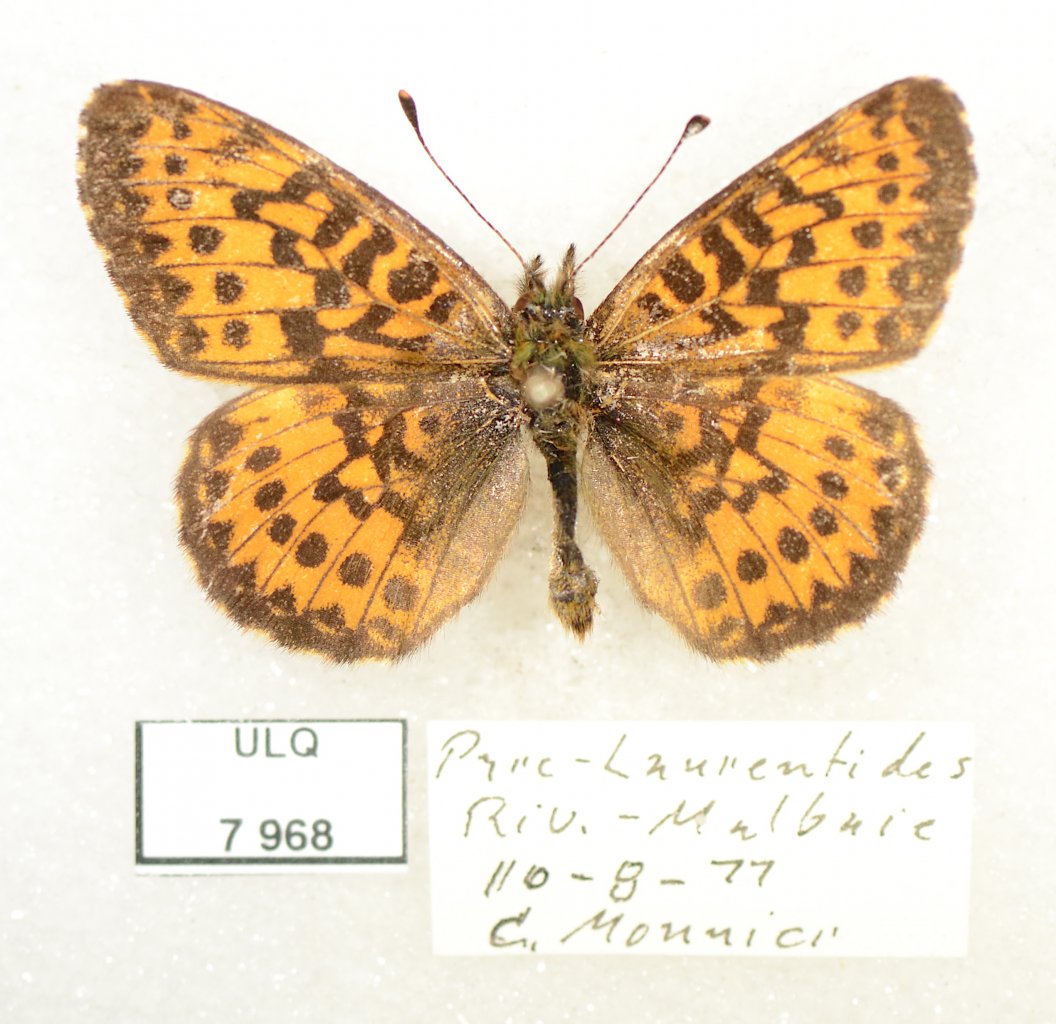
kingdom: Animalia
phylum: Arthropoda
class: Insecta
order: Lepidoptera
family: Nymphalidae
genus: Boloria
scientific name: Boloria selene
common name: Silver-bordered Fritillary
